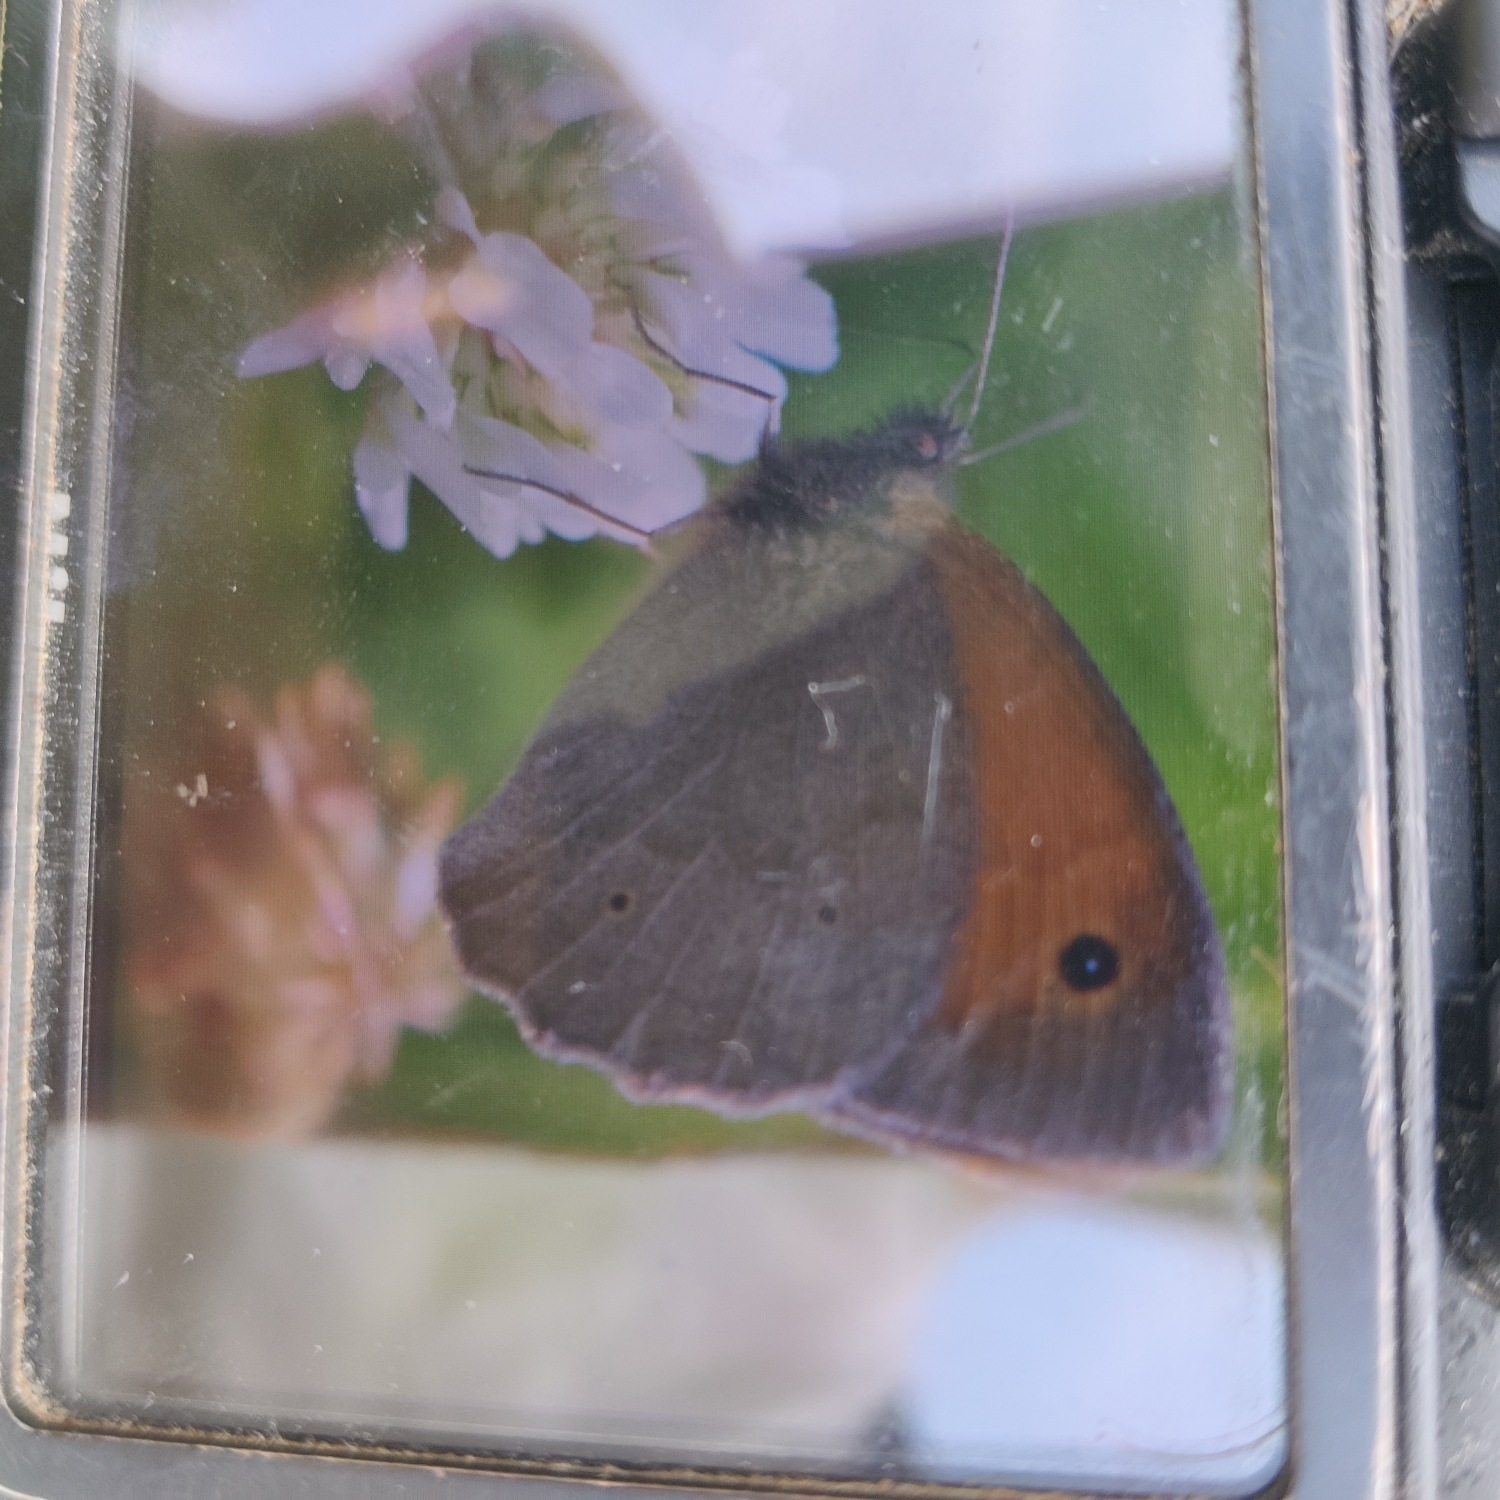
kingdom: Animalia
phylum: Arthropoda
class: Insecta
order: Lepidoptera
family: Nymphalidae
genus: Maniola
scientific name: Maniola jurtina
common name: Græsrandøje
